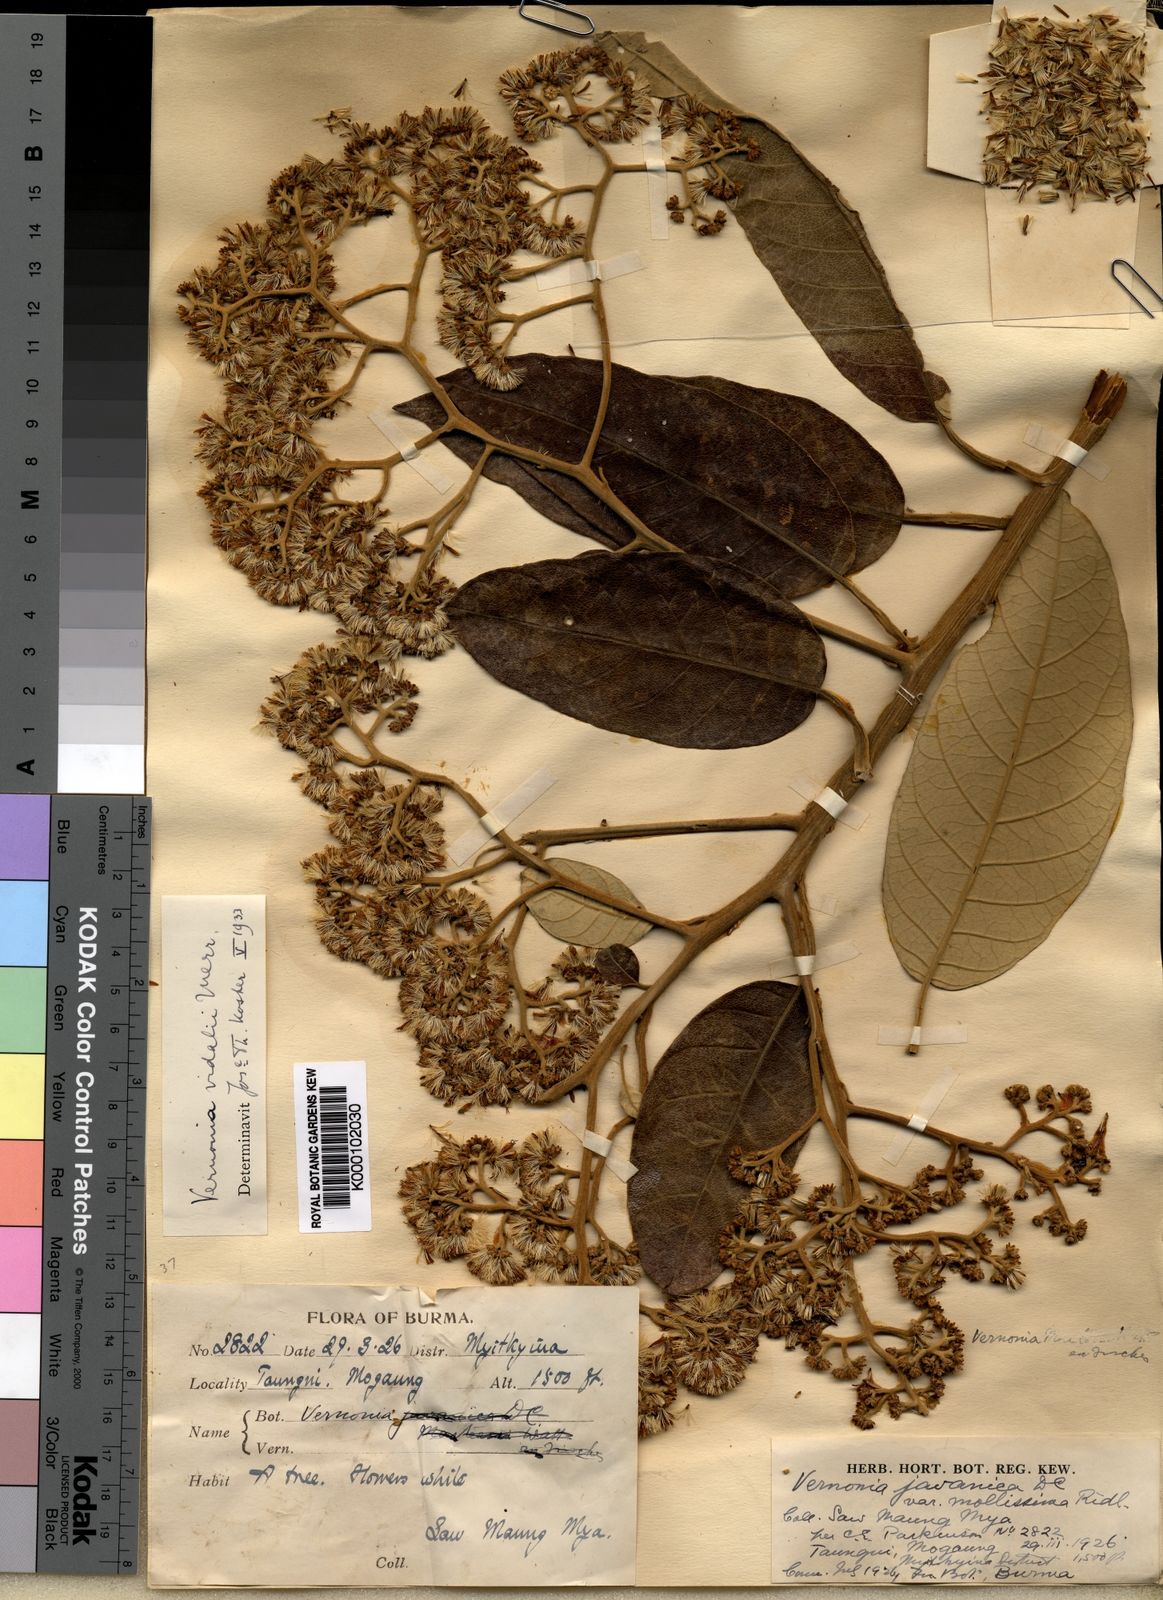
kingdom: Plantae
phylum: Tracheophyta
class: Magnoliopsida
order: Asterales
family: Asteraceae
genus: Strobocalyx
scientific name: Strobocalyx vidalii
